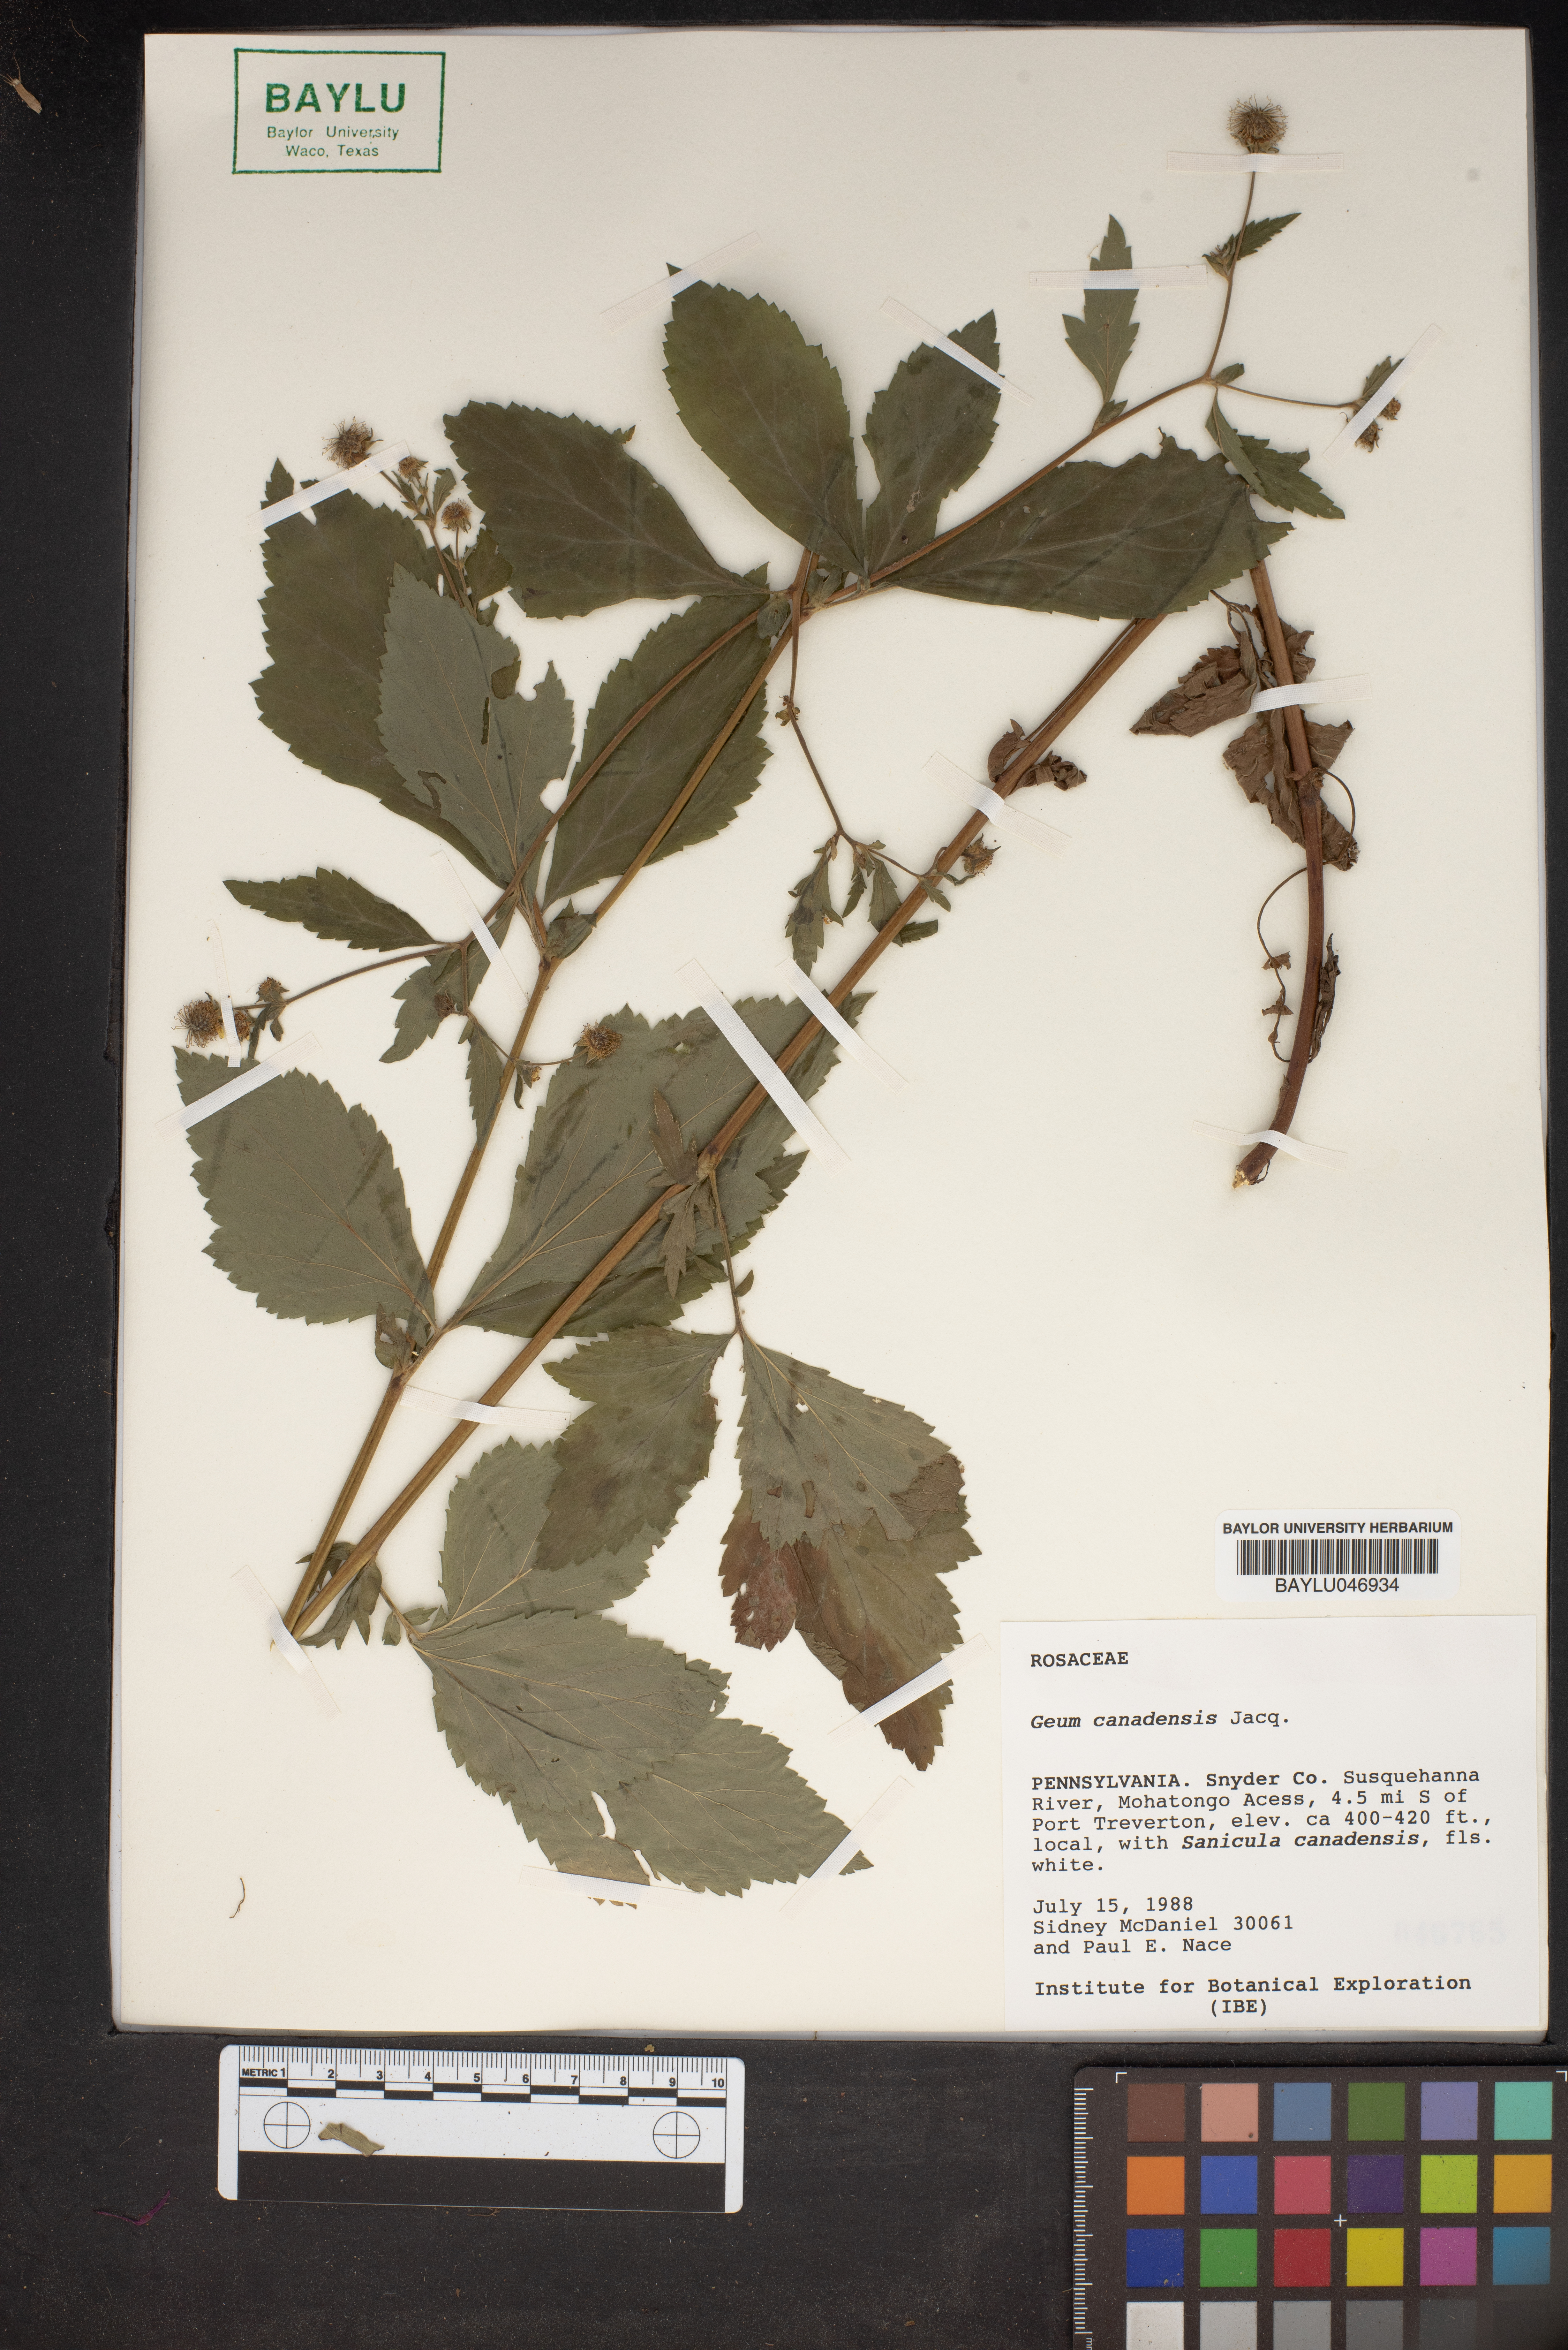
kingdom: Plantae
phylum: Tracheophyta
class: Magnoliopsida
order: Rosales
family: Rosaceae
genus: Geum
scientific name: Geum canadense
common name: White avens
